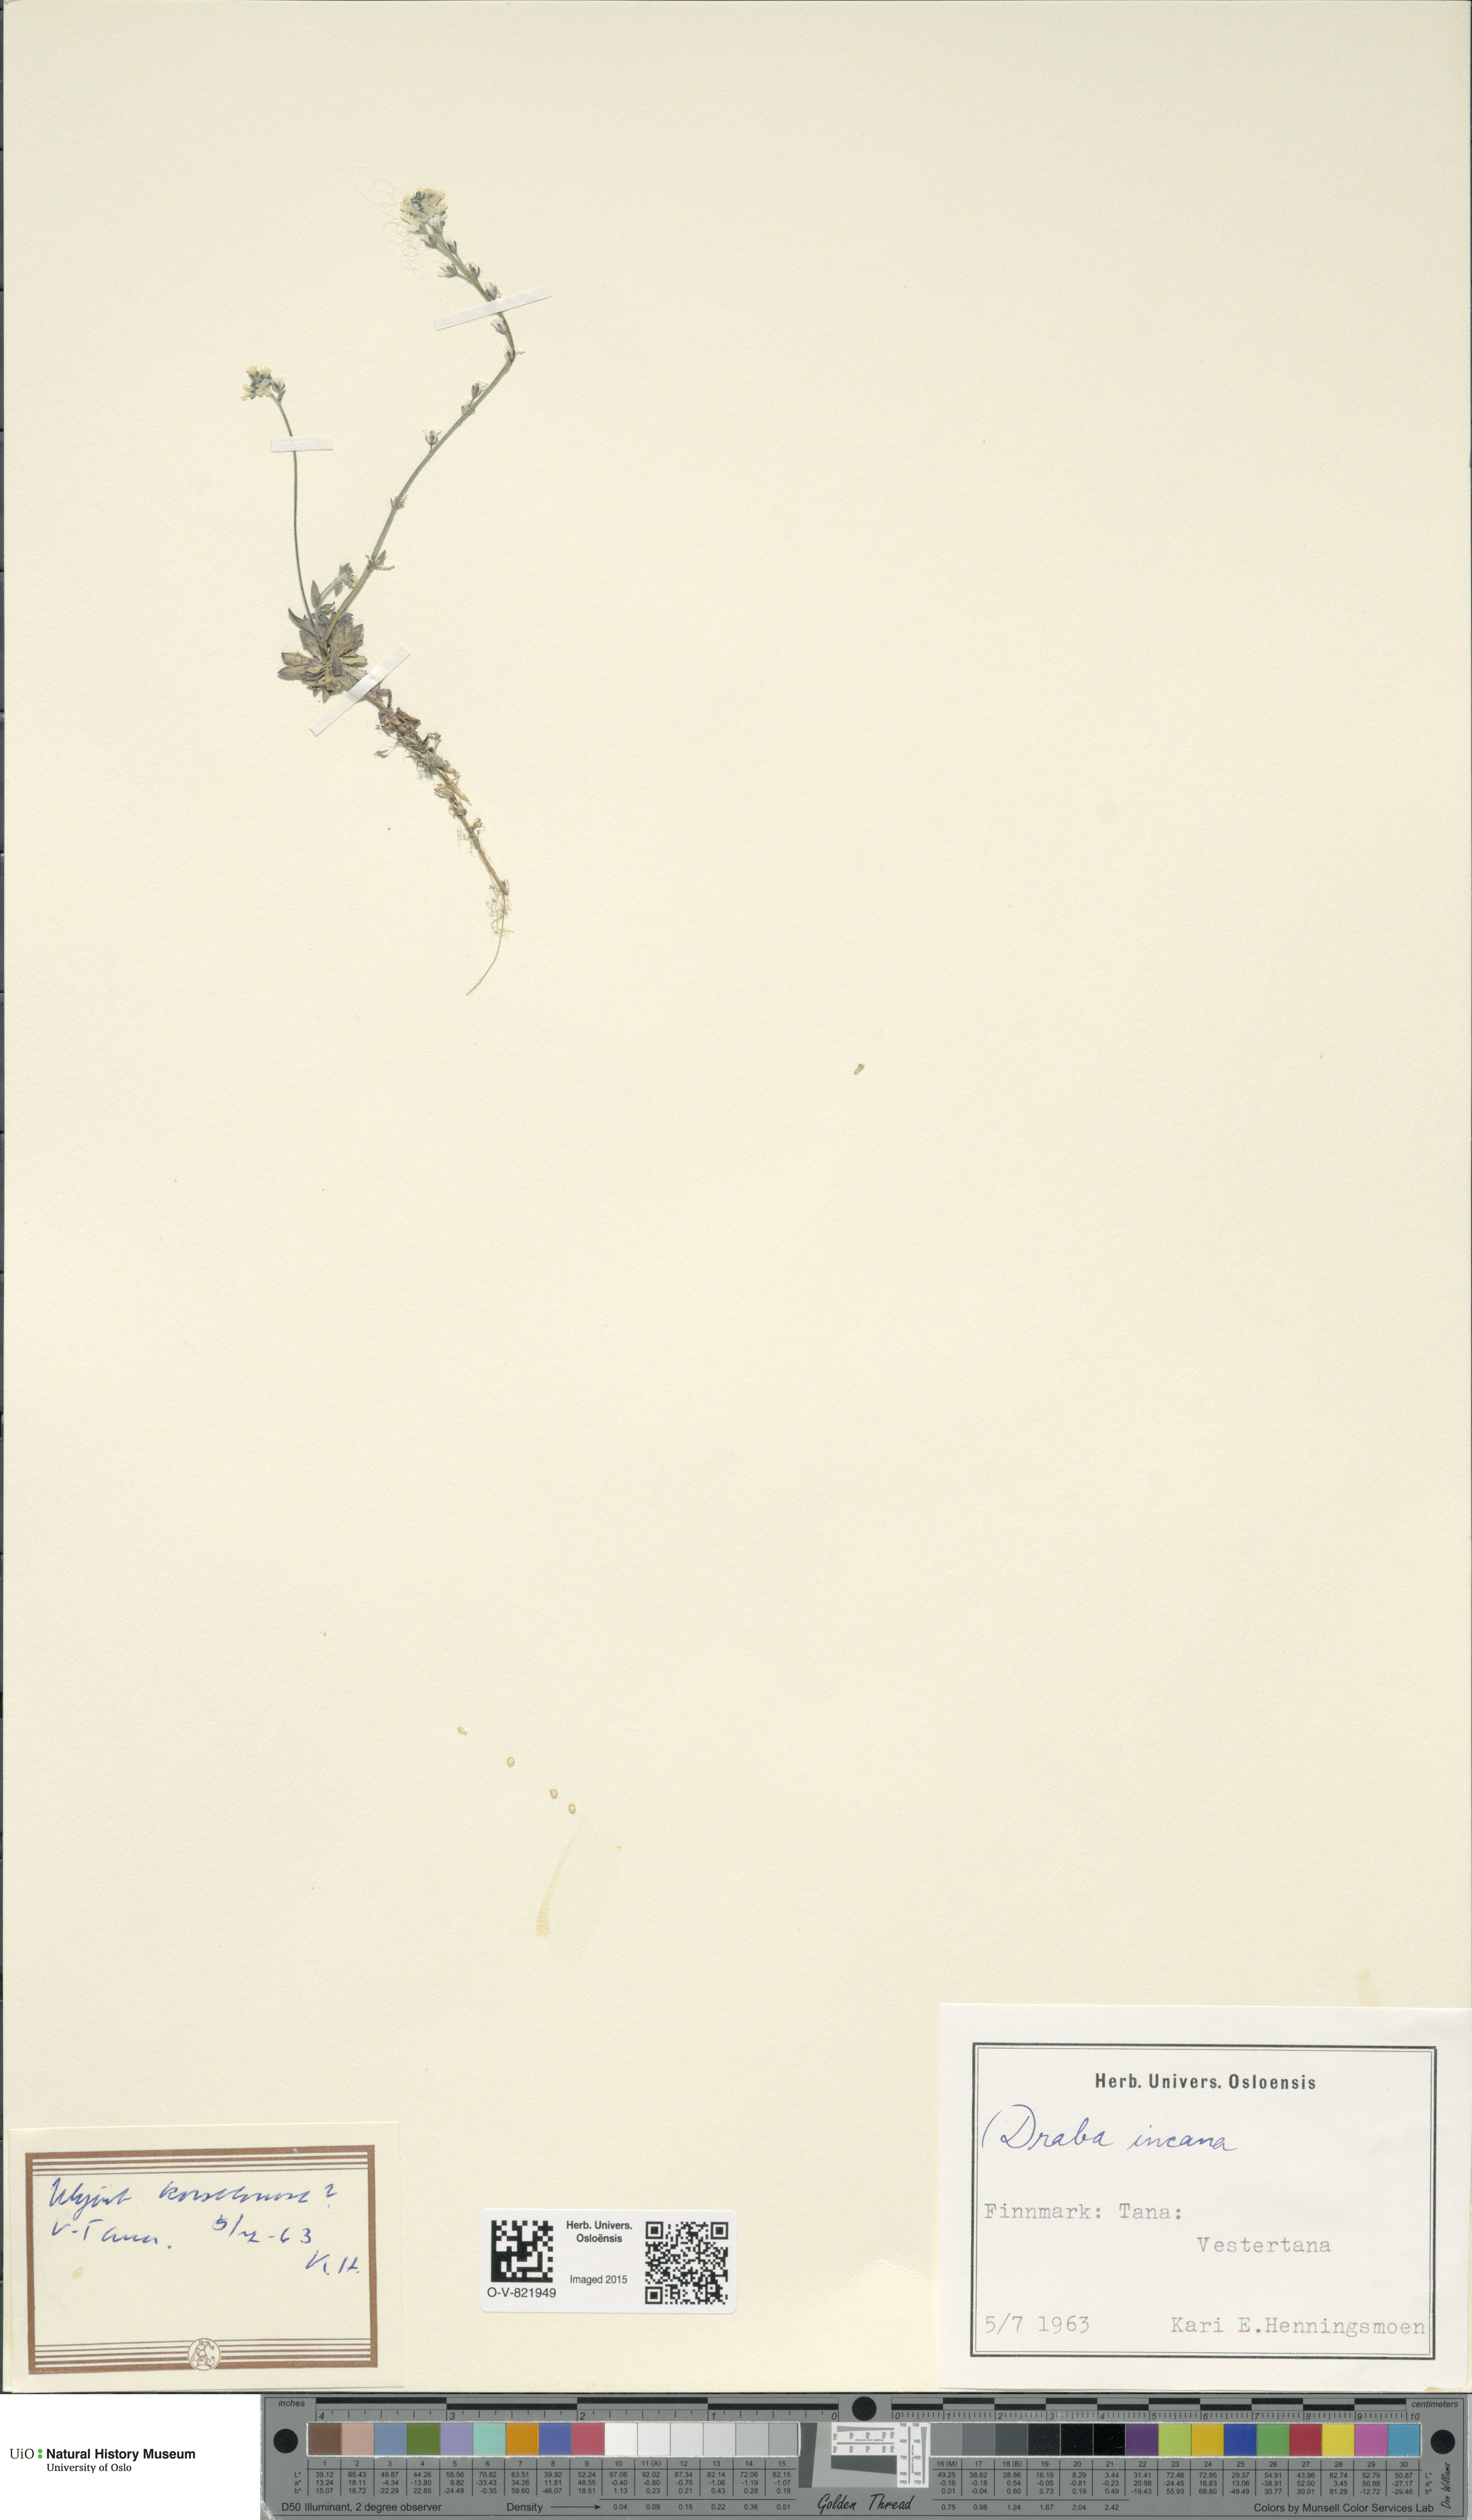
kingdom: Plantae
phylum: Tracheophyta
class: Magnoliopsida
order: Brassicales
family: Brassicaceae
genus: Draba
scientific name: Draba incana
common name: Hoary whitlow-grass
